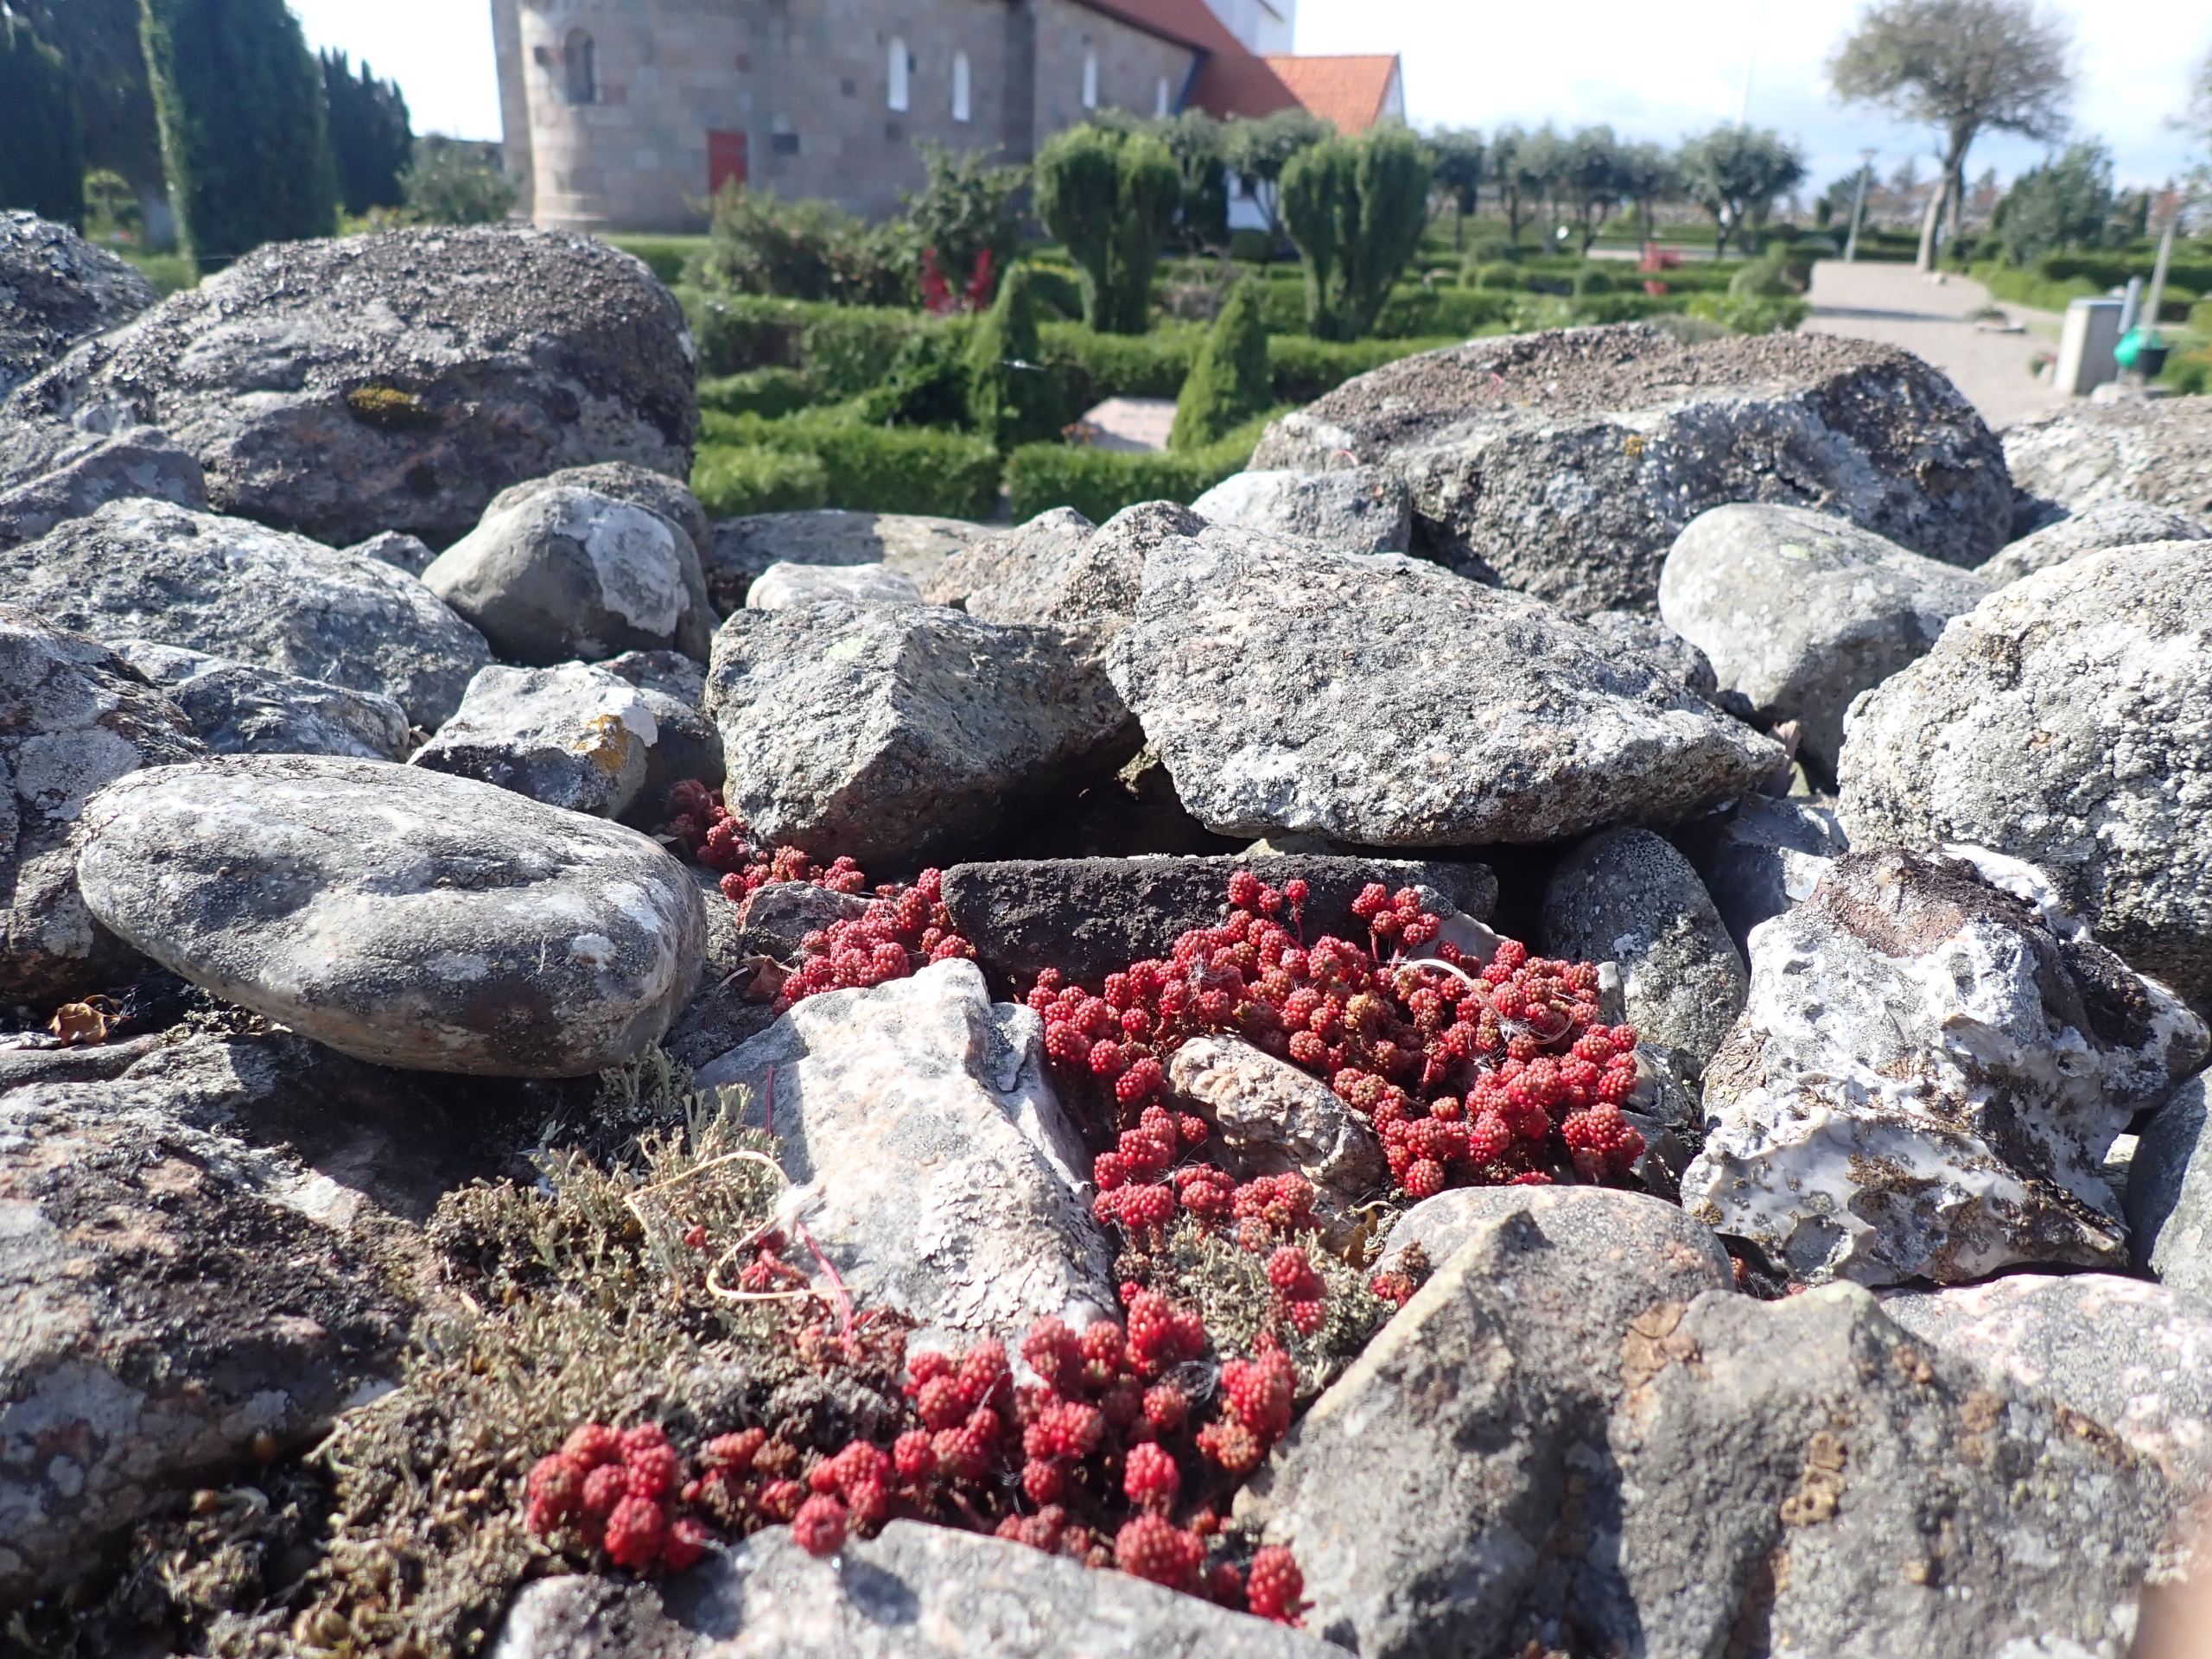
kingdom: Plantae
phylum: Tracheophyta
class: Magnoliopsida
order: Saxifragales
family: Crassulaceae
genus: Sedum
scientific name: Sedum lydium
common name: Mos-stenurt
